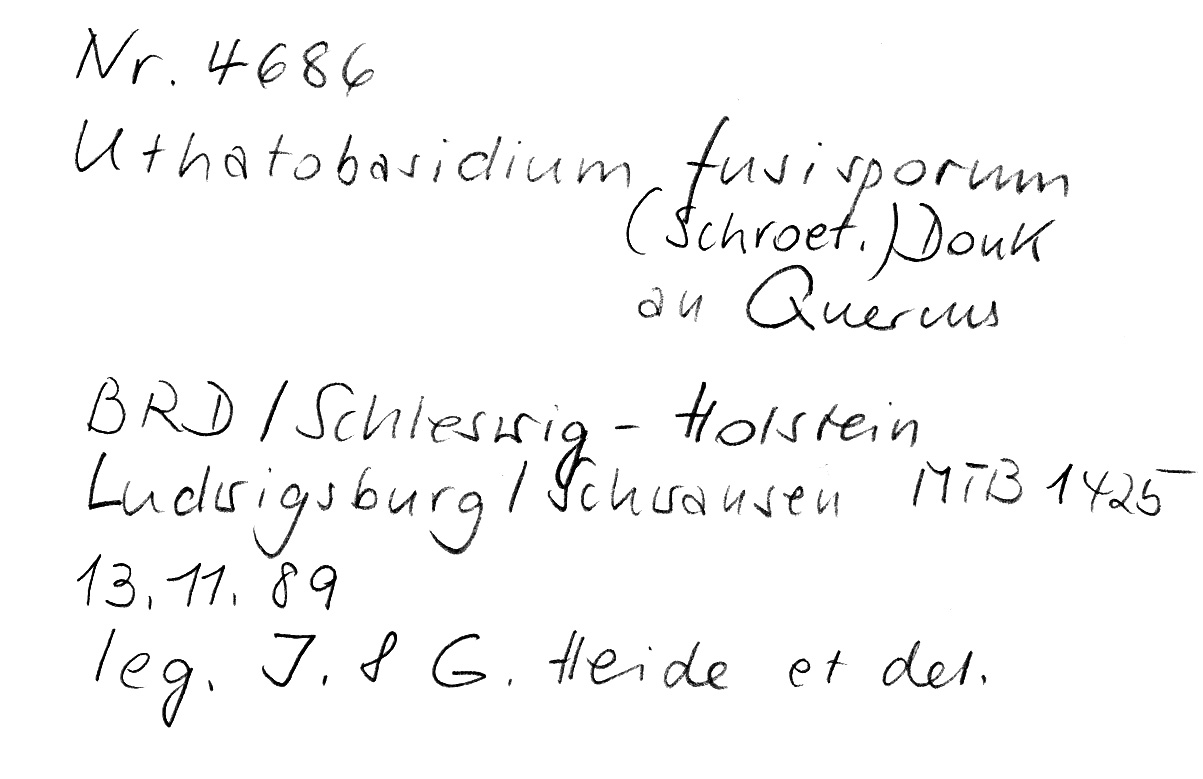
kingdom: Fungi
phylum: Basidiomycota
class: Agaricomycetes
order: Cantharellales
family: Ceratobasidiaceae
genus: Rhizoctonia
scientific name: Rhizoctonia fusispora
